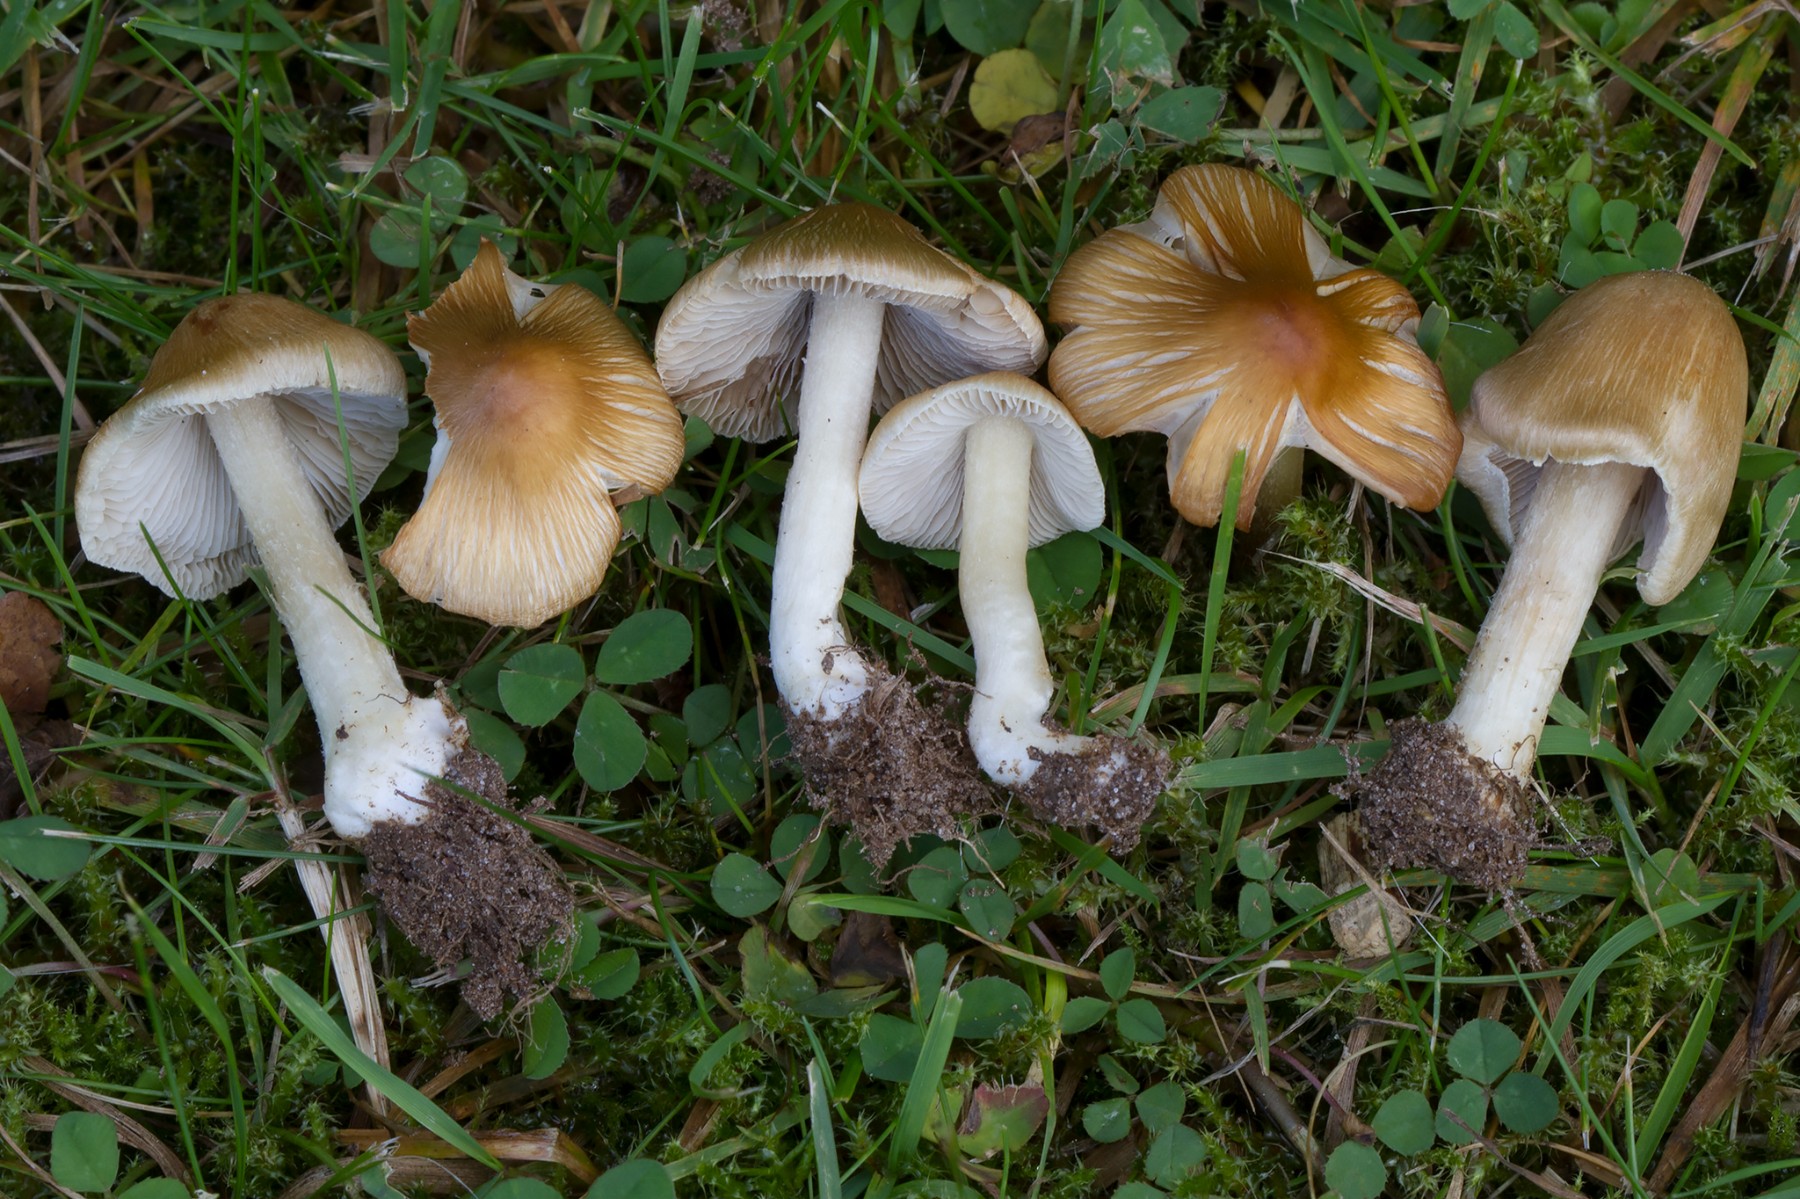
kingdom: Fungi
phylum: Basidiomycota
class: Agaricomycetes
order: Agaricales
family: Inocybaceae
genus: Inosperma
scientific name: Inosperma kuthanii
